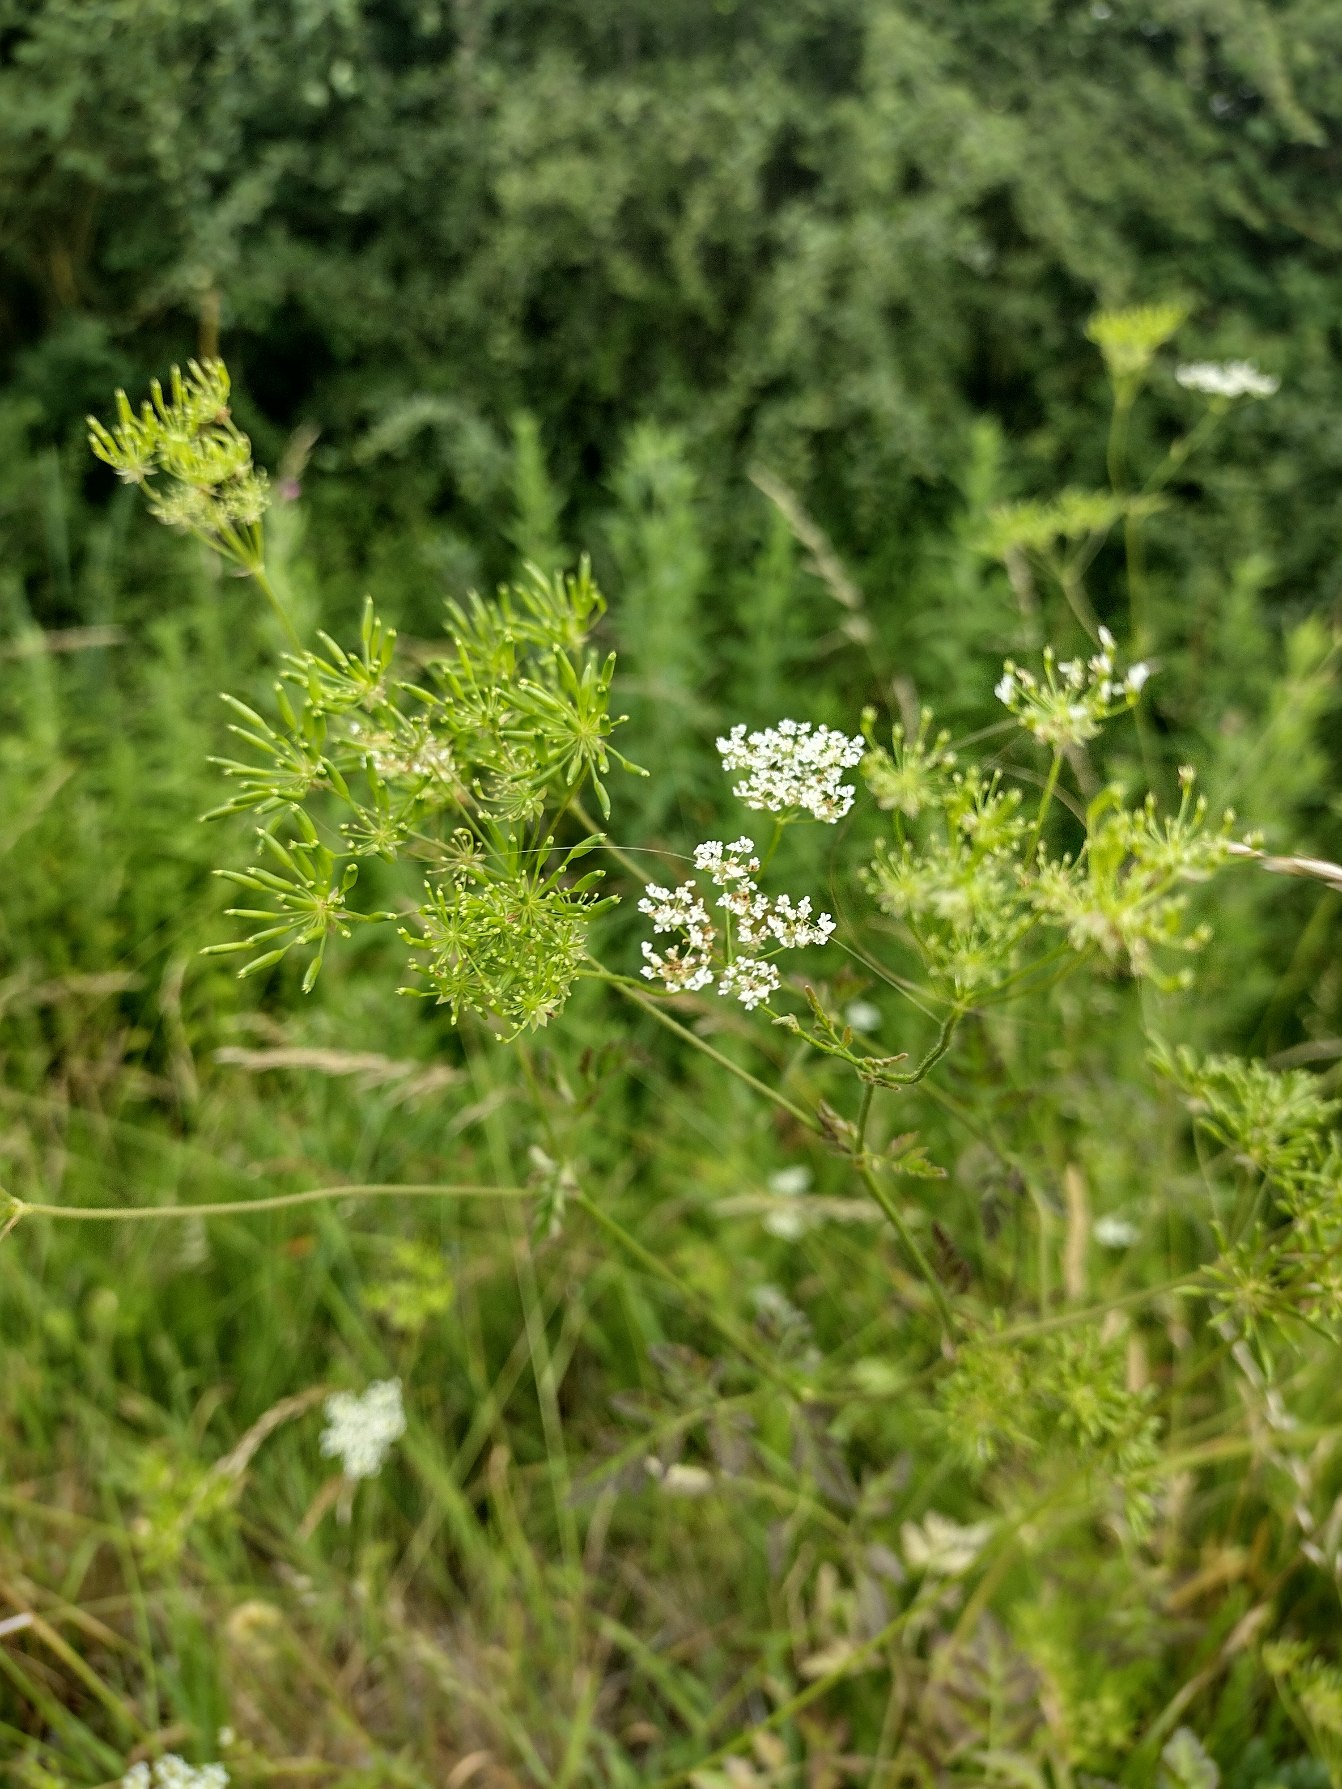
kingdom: Plantae
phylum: Tracheophyta
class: Magnoliopsida
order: Apiales
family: Apiaceae
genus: Chaerophyllum
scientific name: Chaerophyllum temulum
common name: Almindelig hulsvøb
